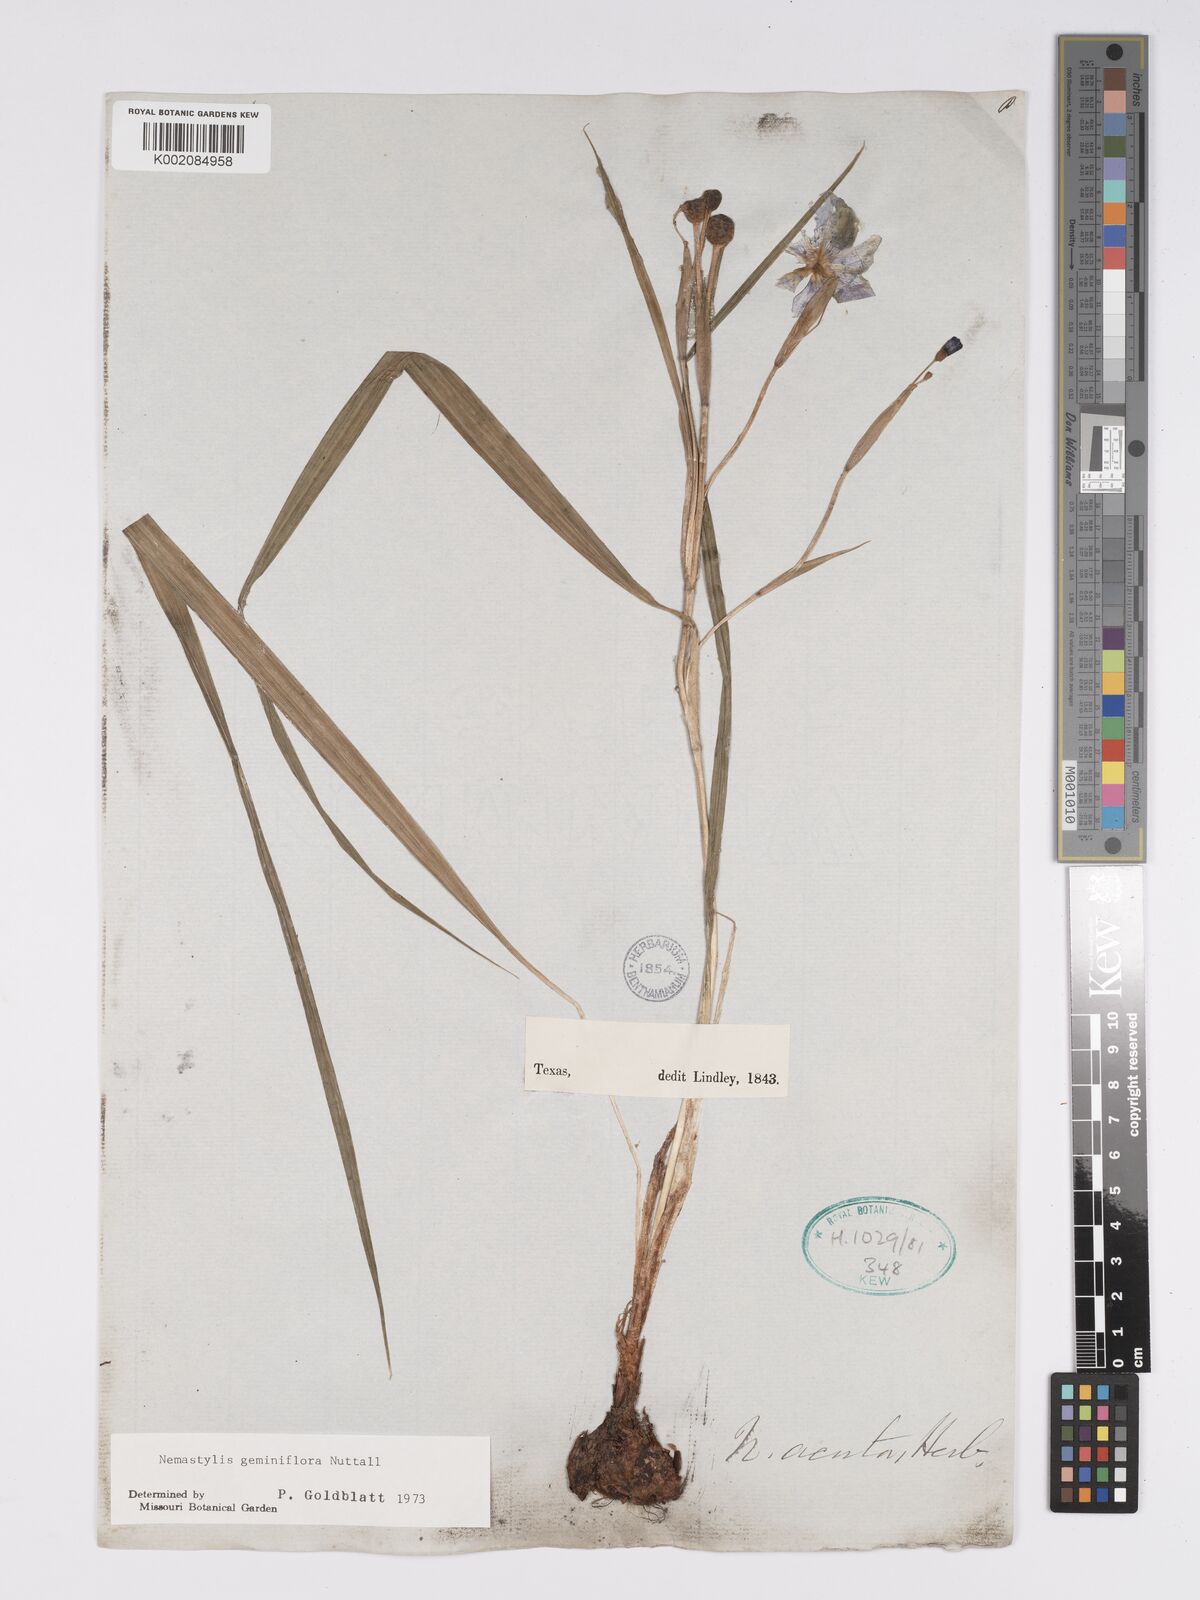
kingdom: Plantae
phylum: Tracheophyta
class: Liliopsida
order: Asparagales
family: Iridaceae
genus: Nemastylis
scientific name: Nemastylis geminiflora
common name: Prairie celestial
